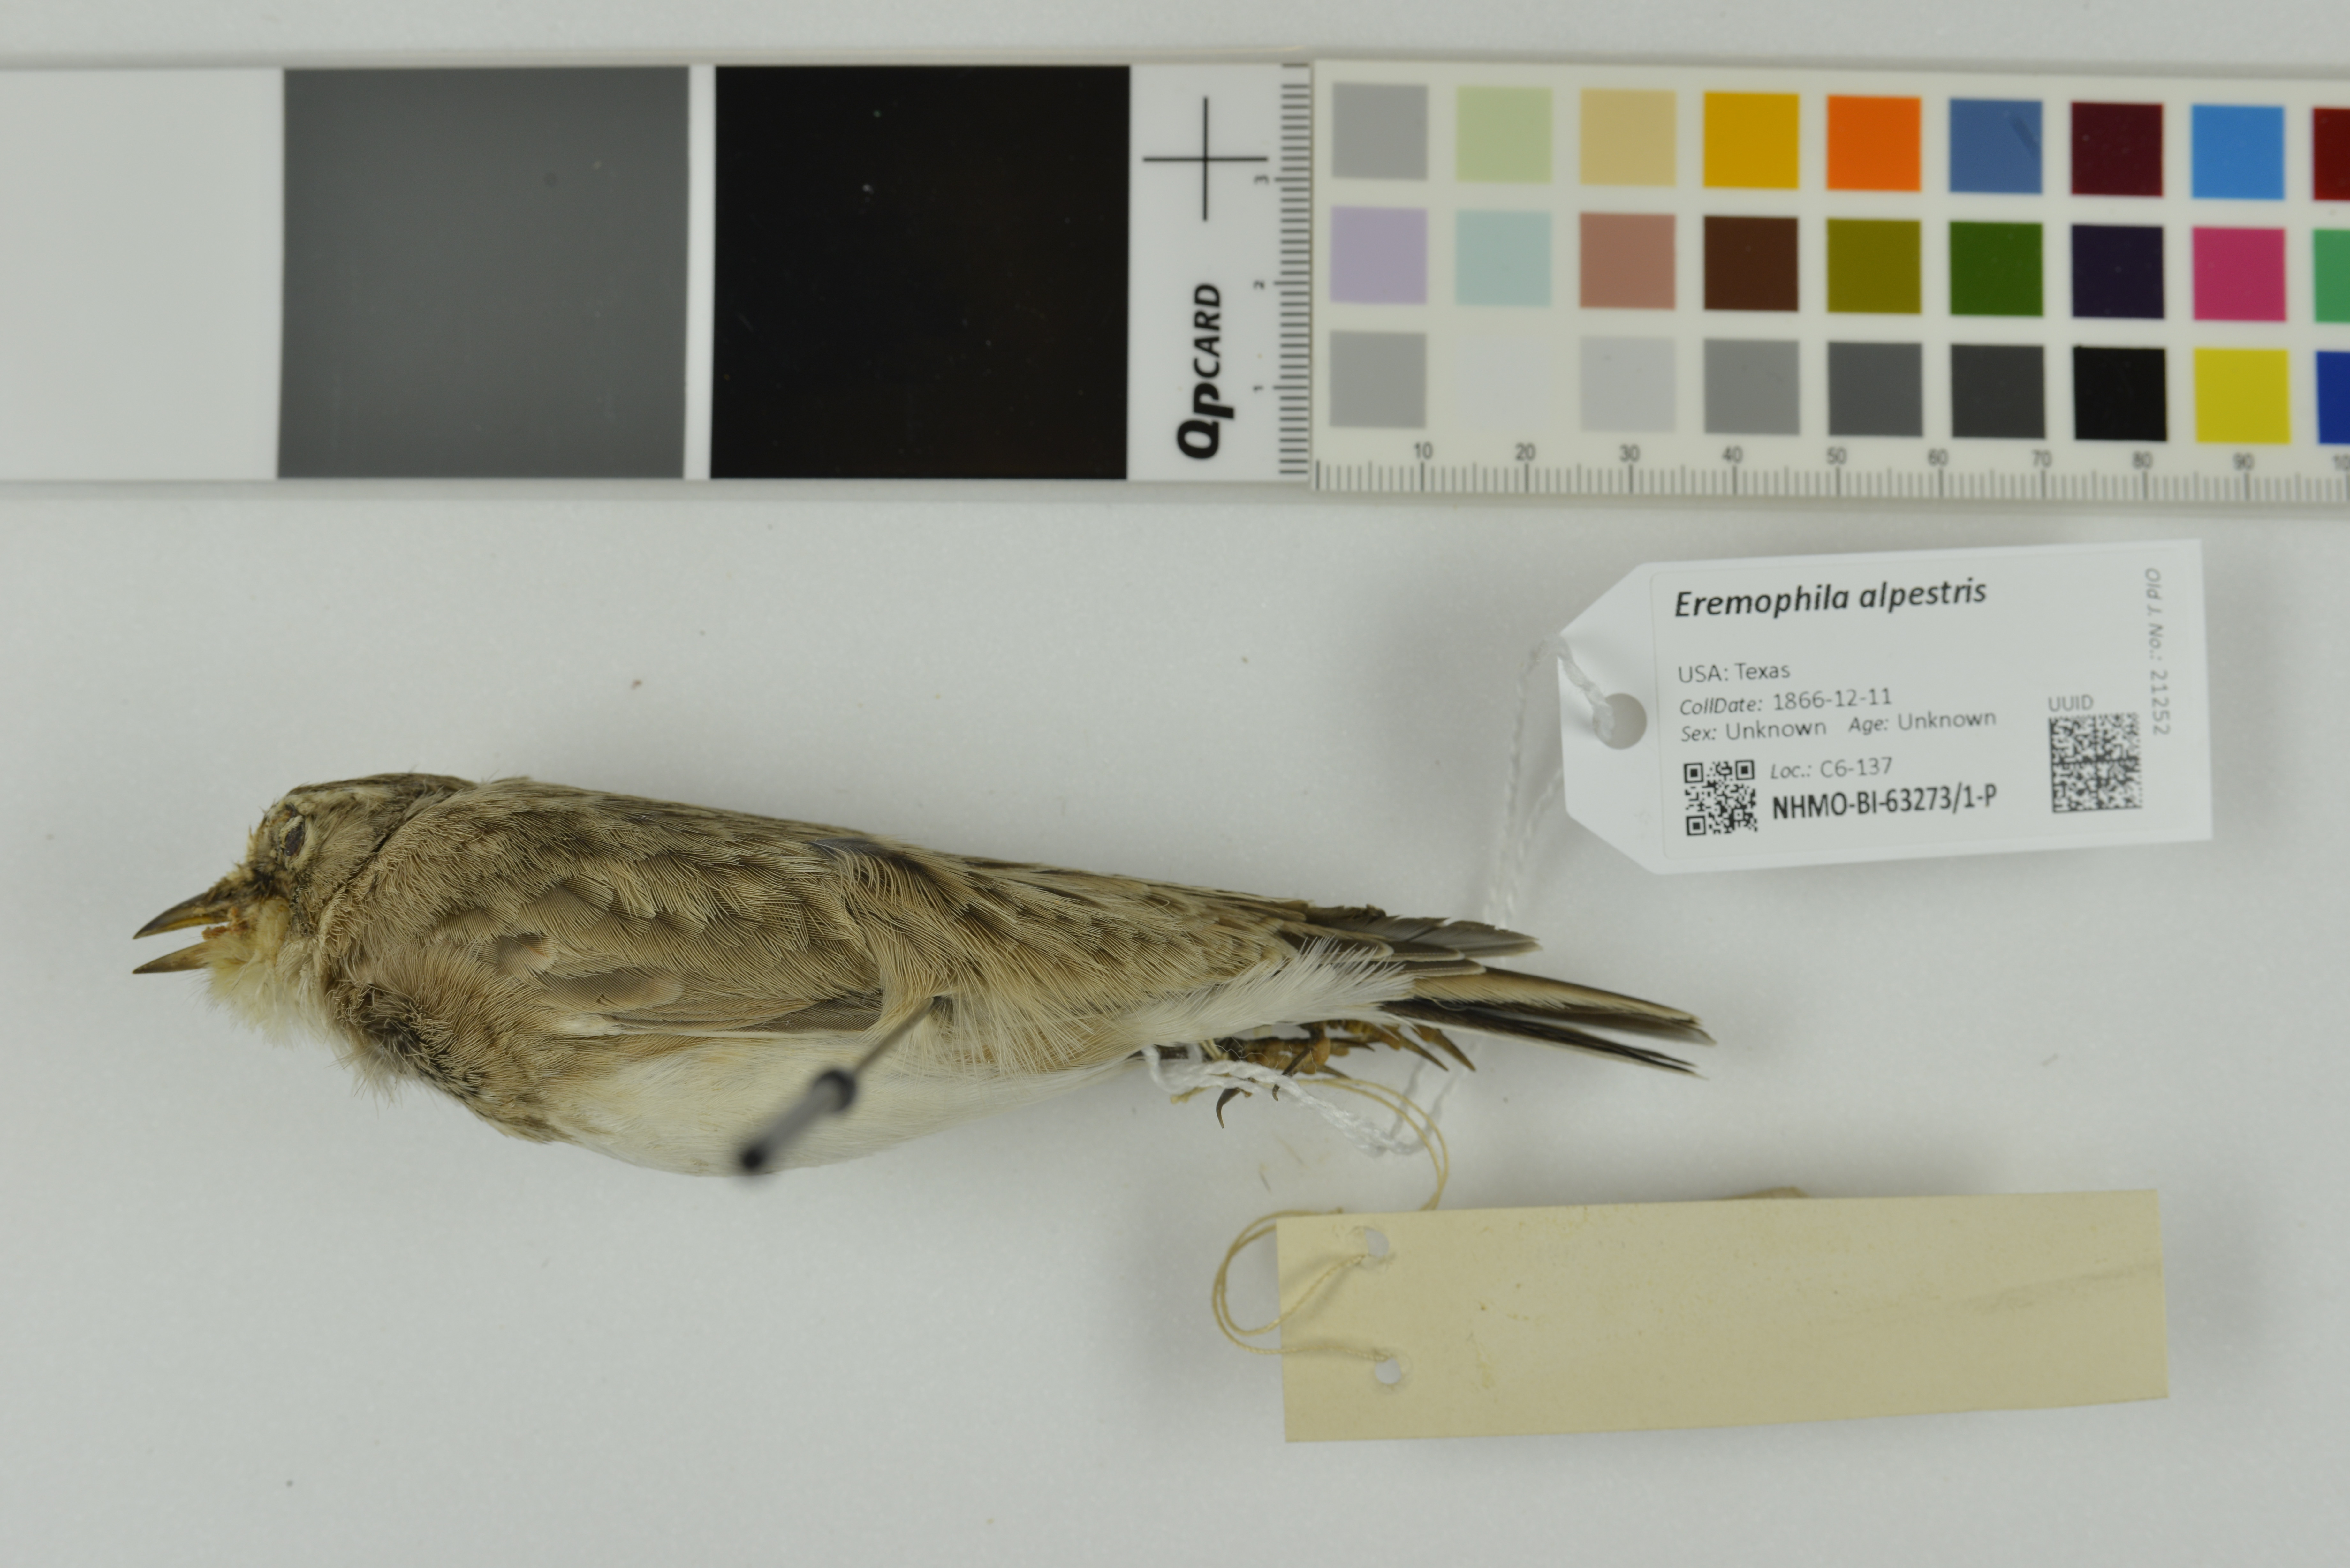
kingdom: Animalia
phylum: Chordata
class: Aves
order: Passeriformes
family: Alaudidae
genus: Eremophila
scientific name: Eremophila alpestris
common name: Horned lark
